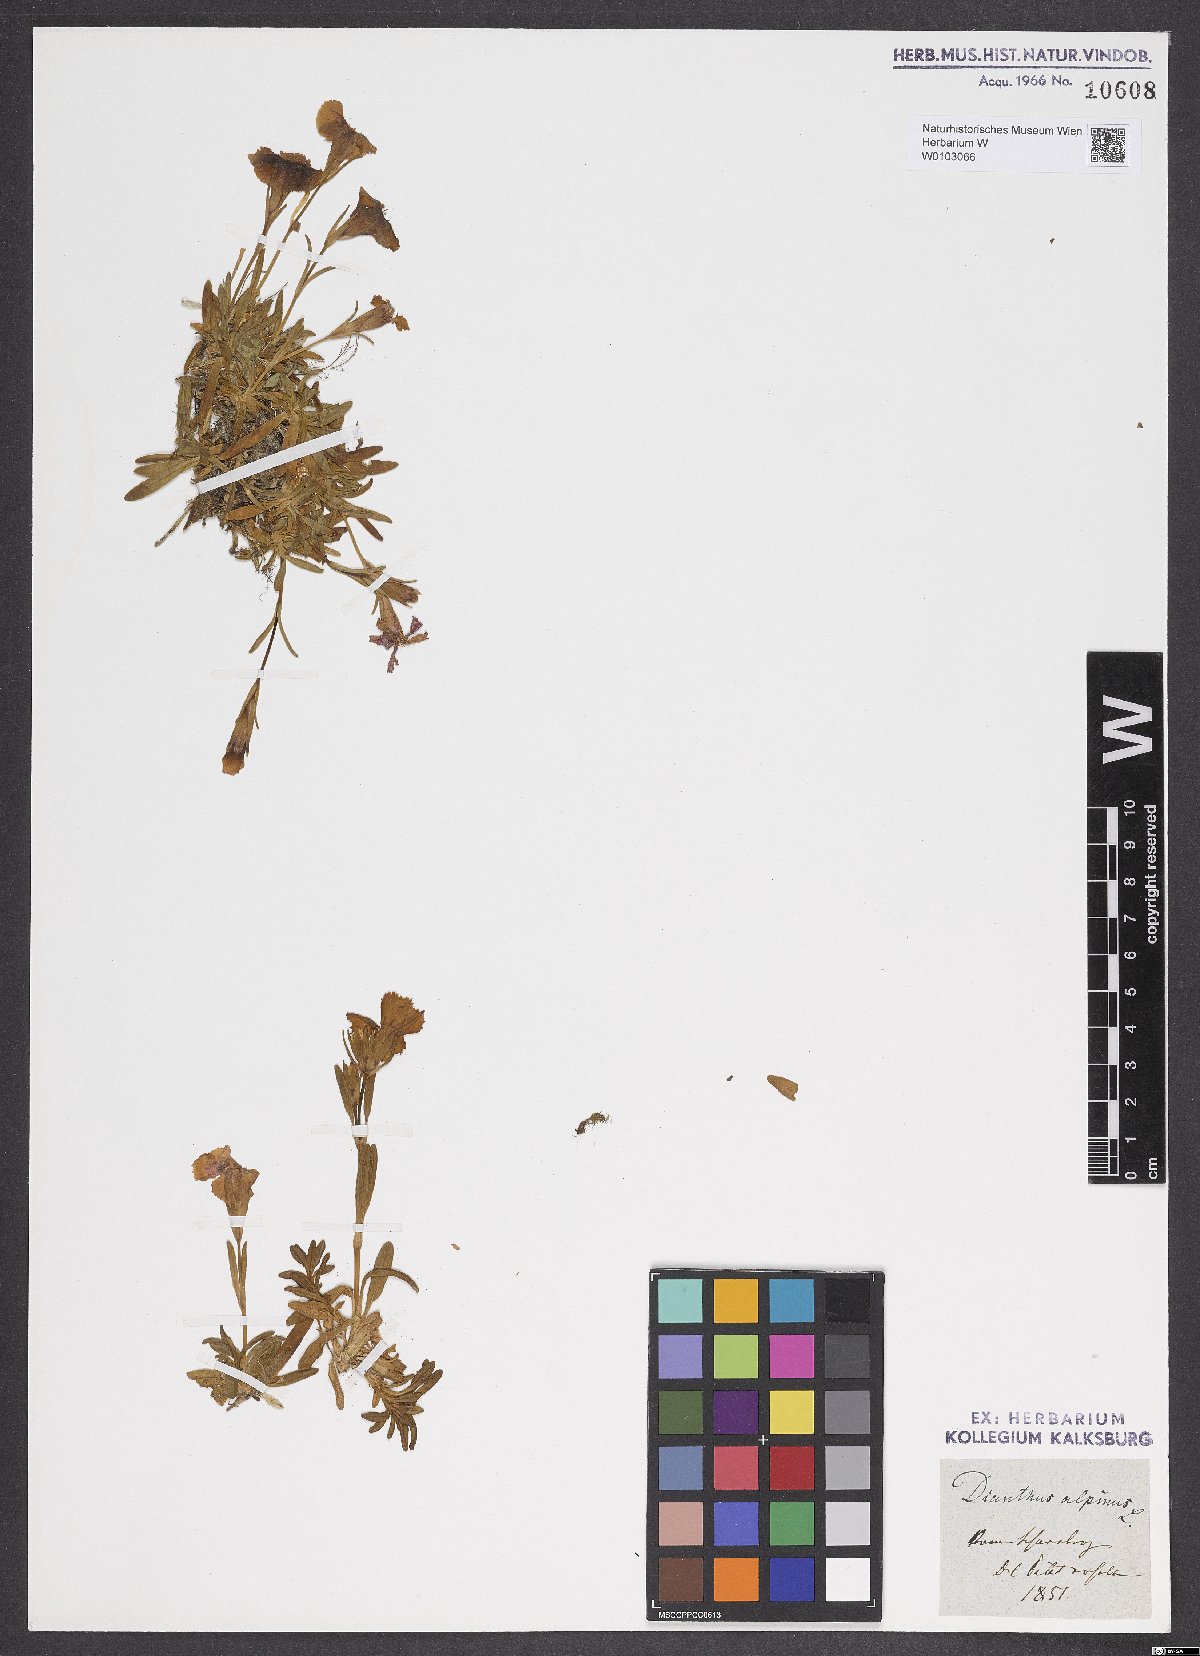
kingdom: Plantae
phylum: Tracheophyta
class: Magnoliopsida
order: Caryophyllales
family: Caryophyllaceae
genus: Dianthus
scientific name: Dianthus alpinus
